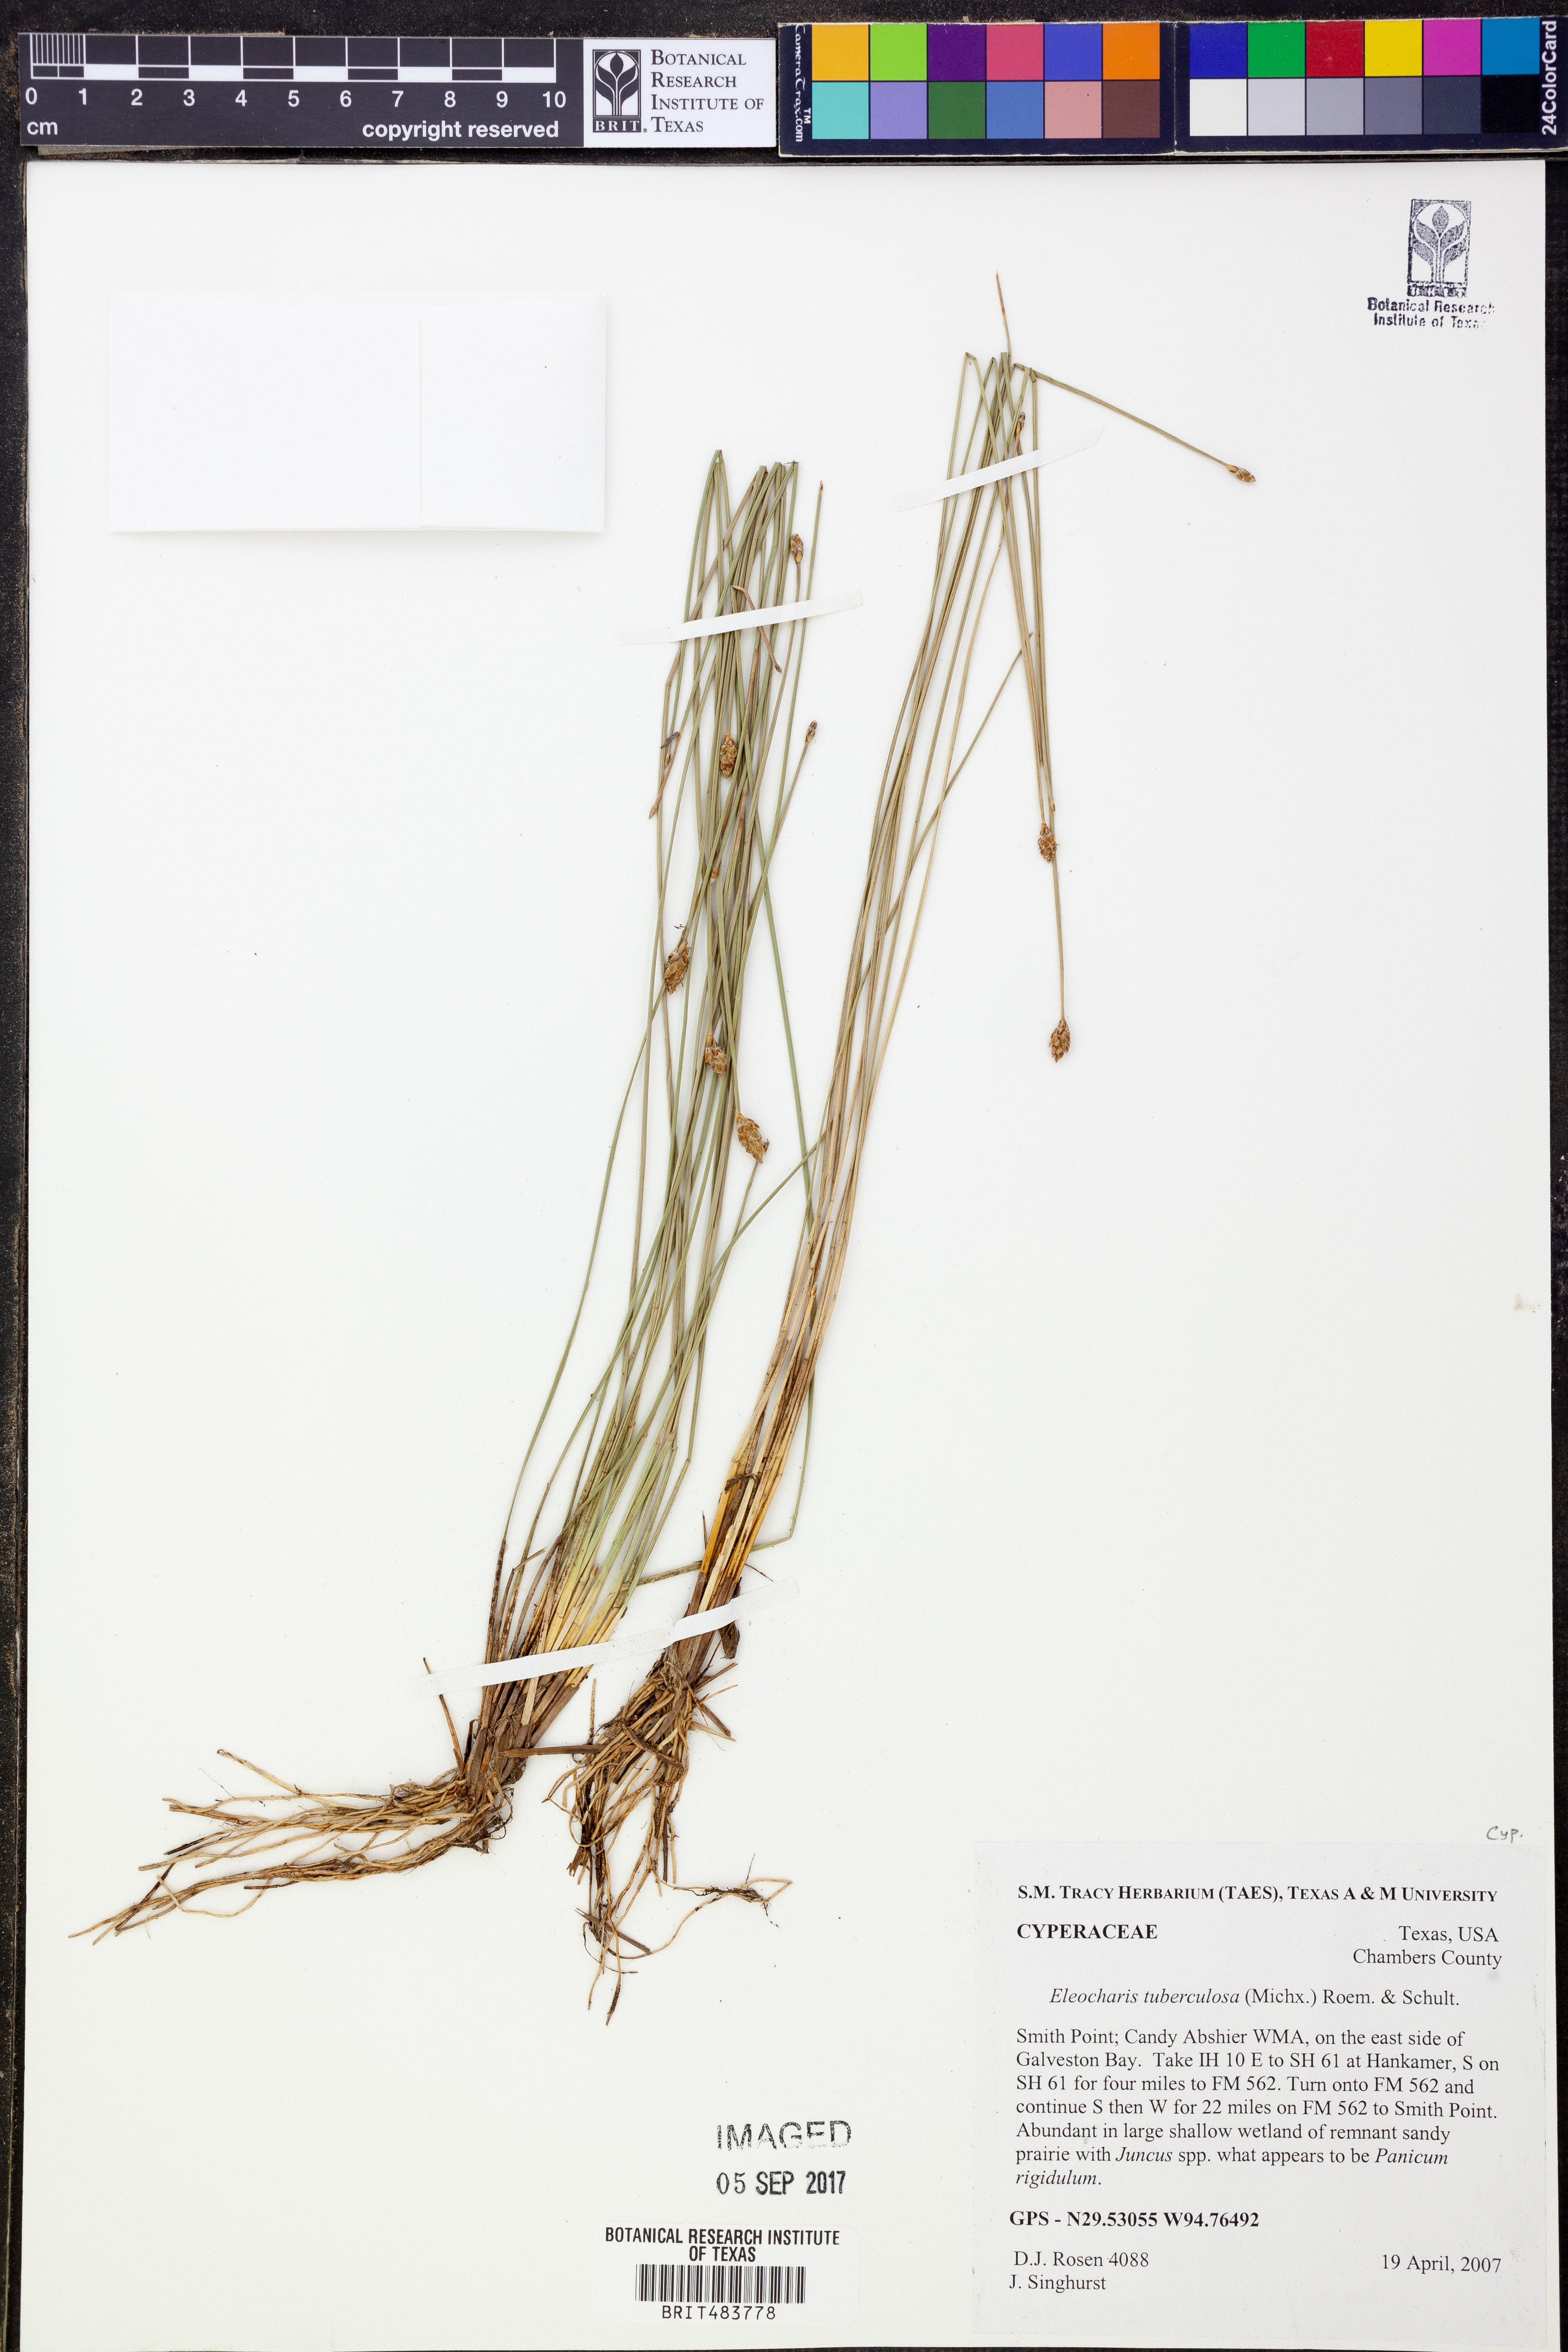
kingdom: Plantae
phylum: Tracheophyta
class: Liliopsida
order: Poales
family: Cyperaceae
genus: Eleocharis
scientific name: Eleocharis tuberculosa
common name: Cone-cup spikerush
